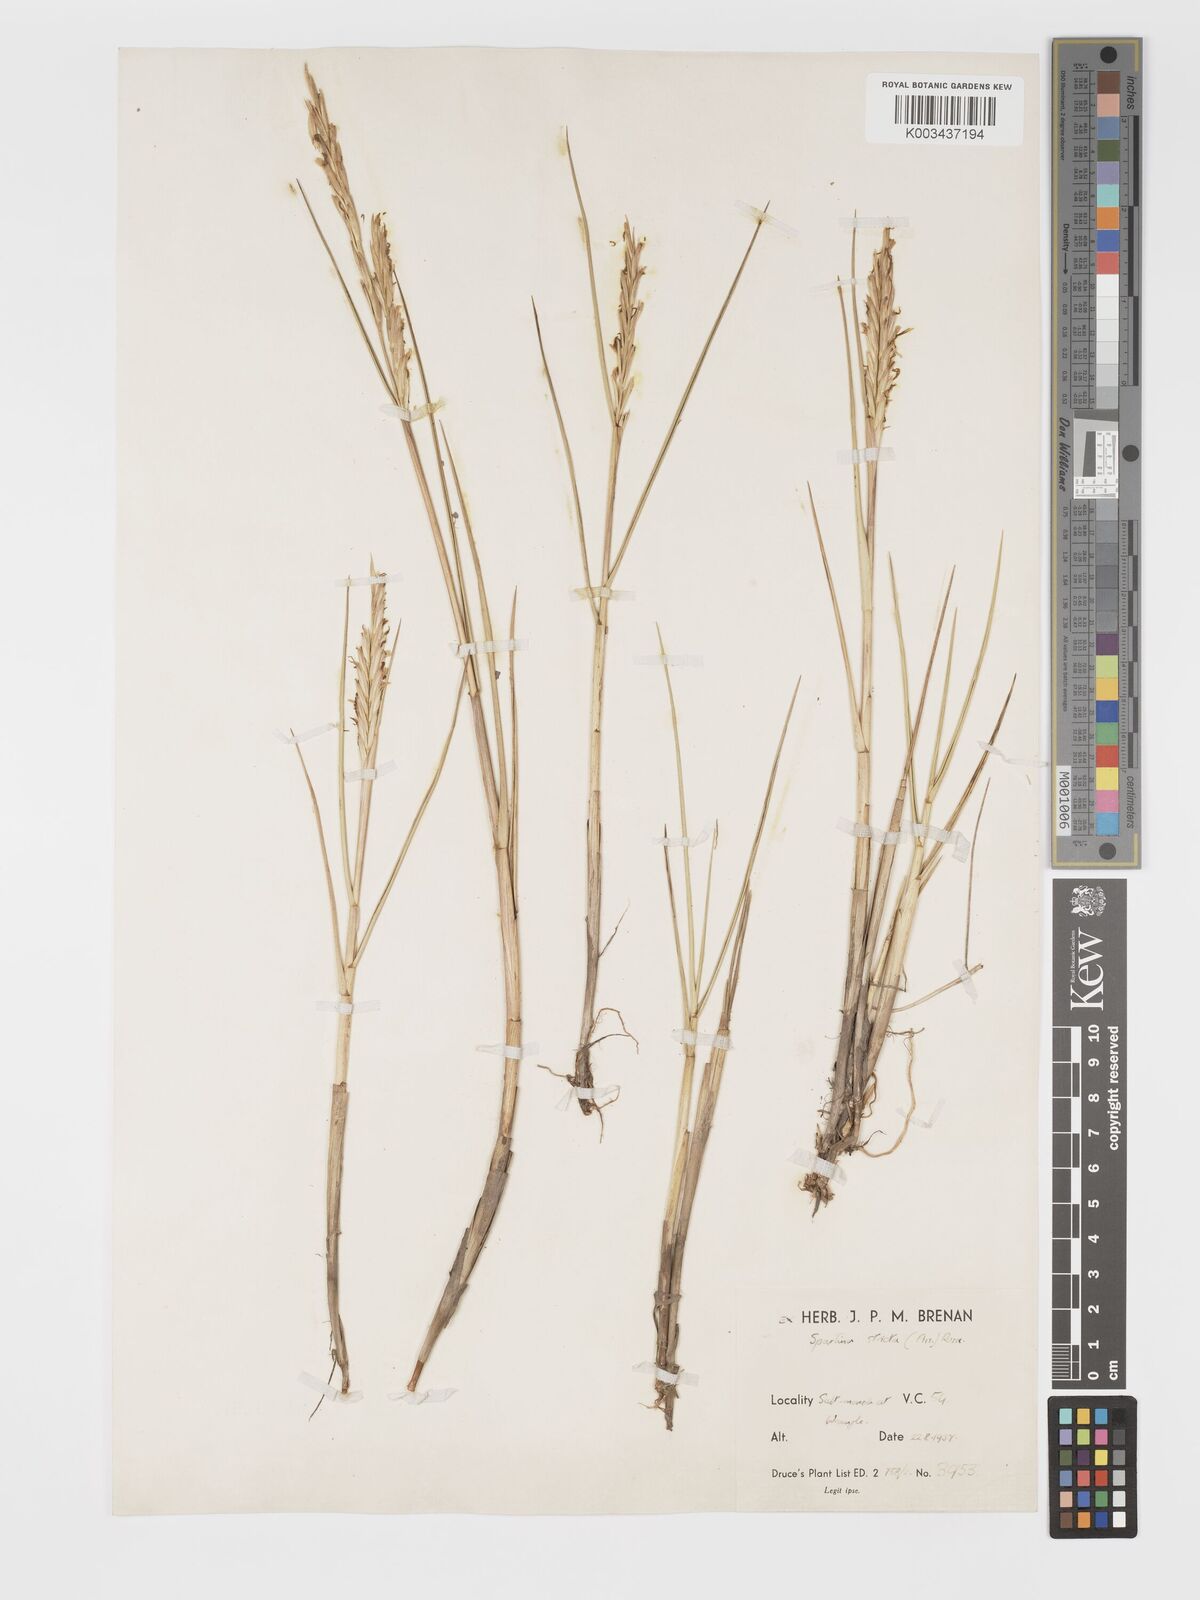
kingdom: Plantae
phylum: Tracheophyta
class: Liliopsida
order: Poales
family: Poaceae
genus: Sporobolus
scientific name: Sporobolus maritimus
